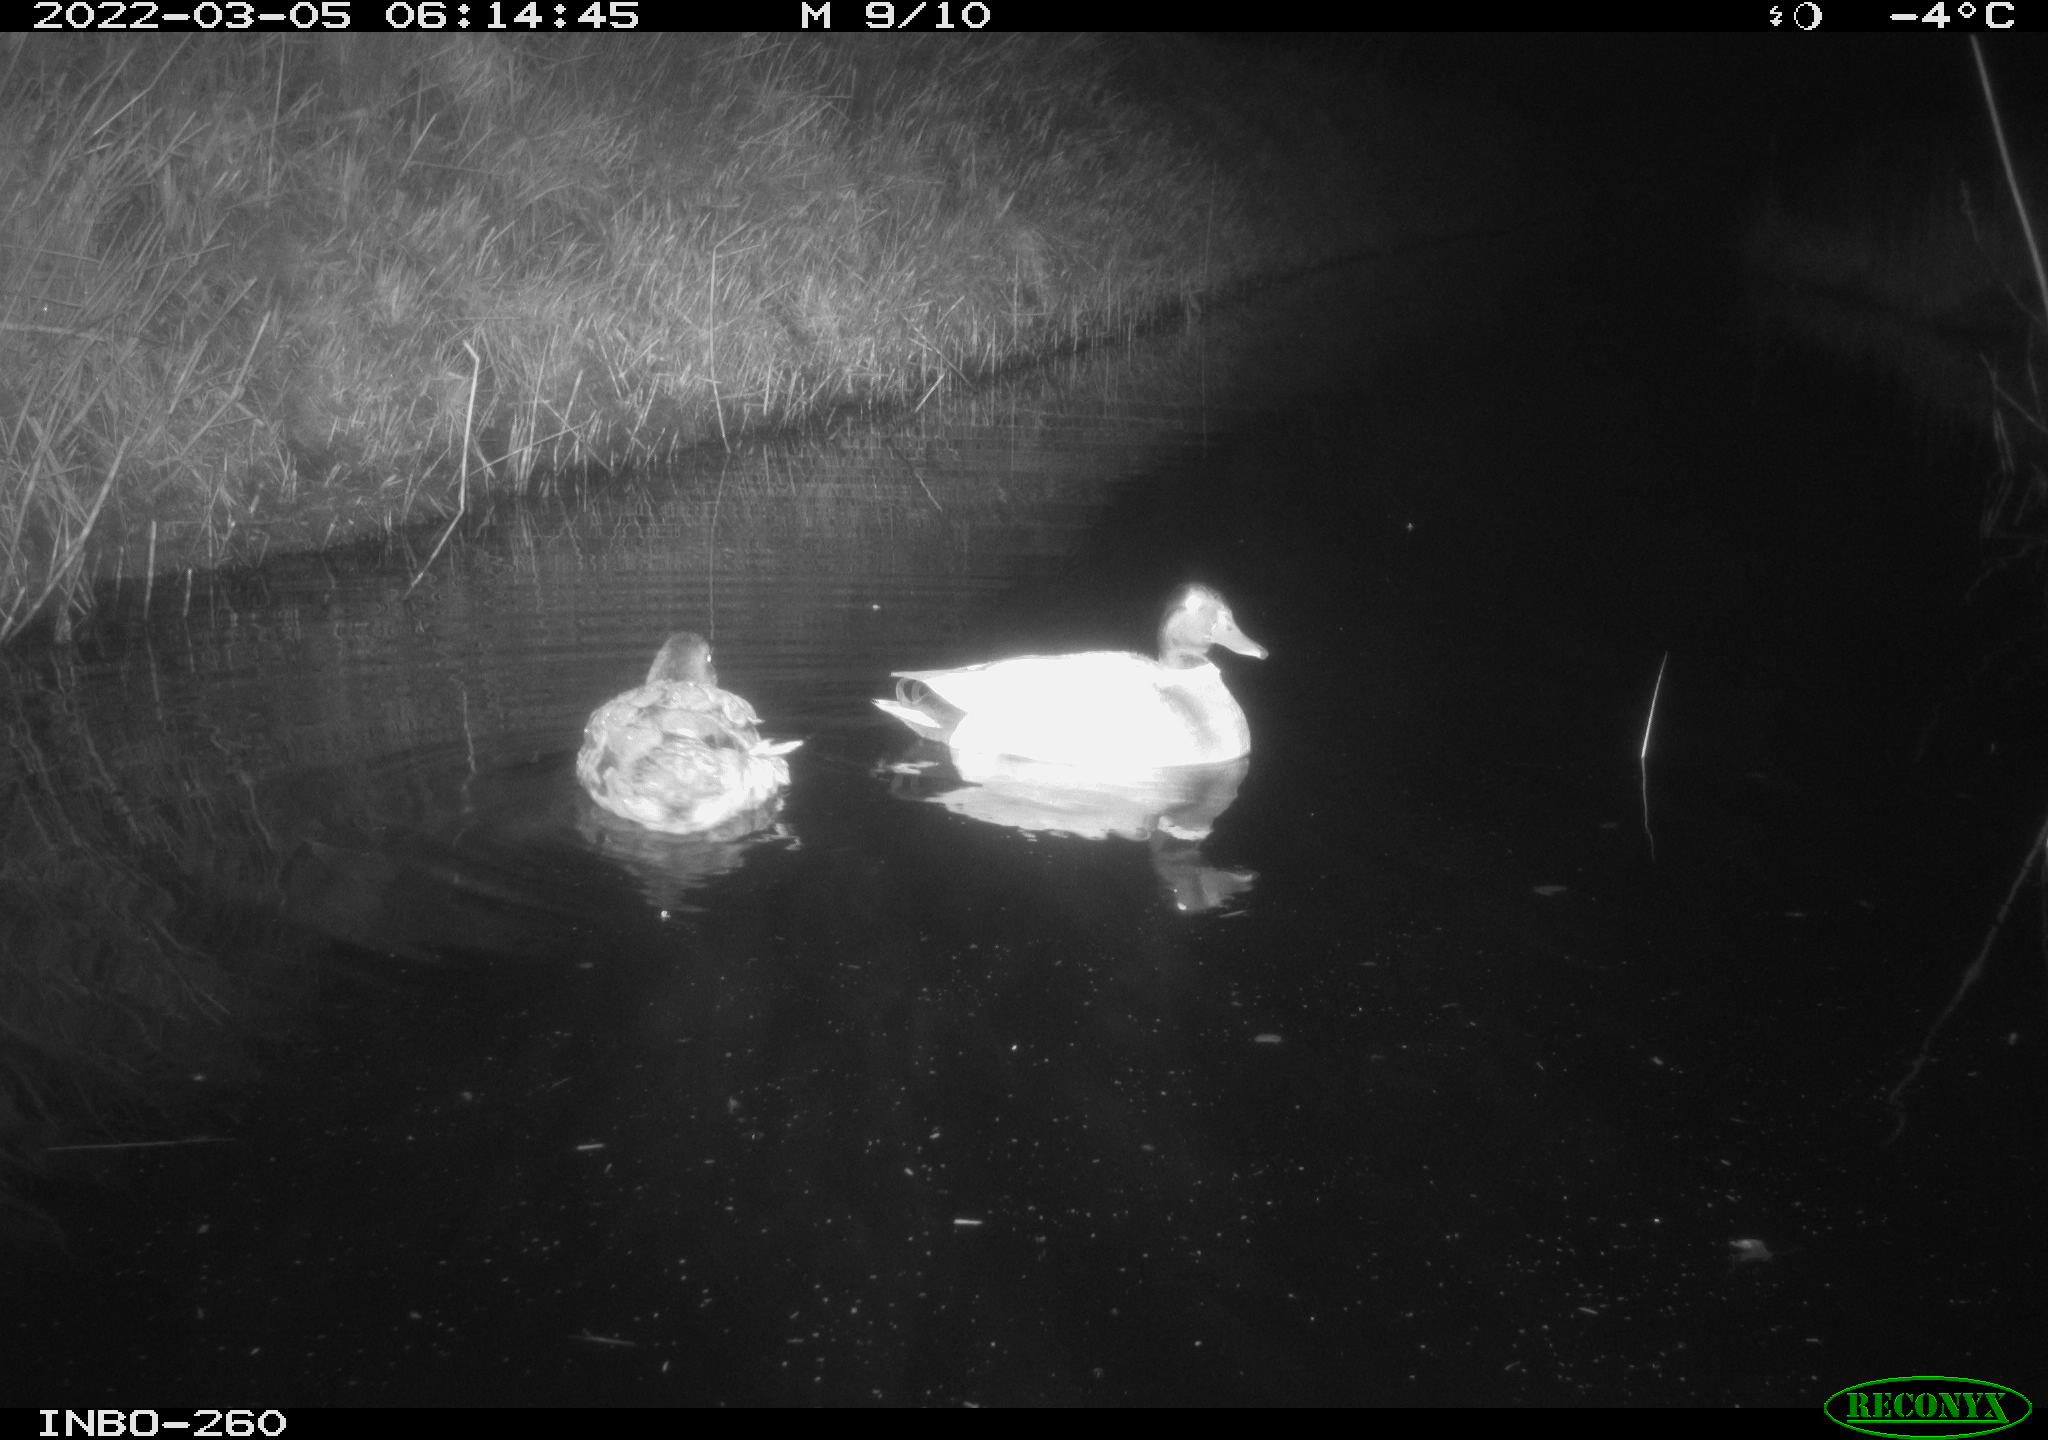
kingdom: Animalia
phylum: Chordata
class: Aves
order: Anseriformes
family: Anatidae
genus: Anas
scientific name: Anas platyrhynchos
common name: Mallard
